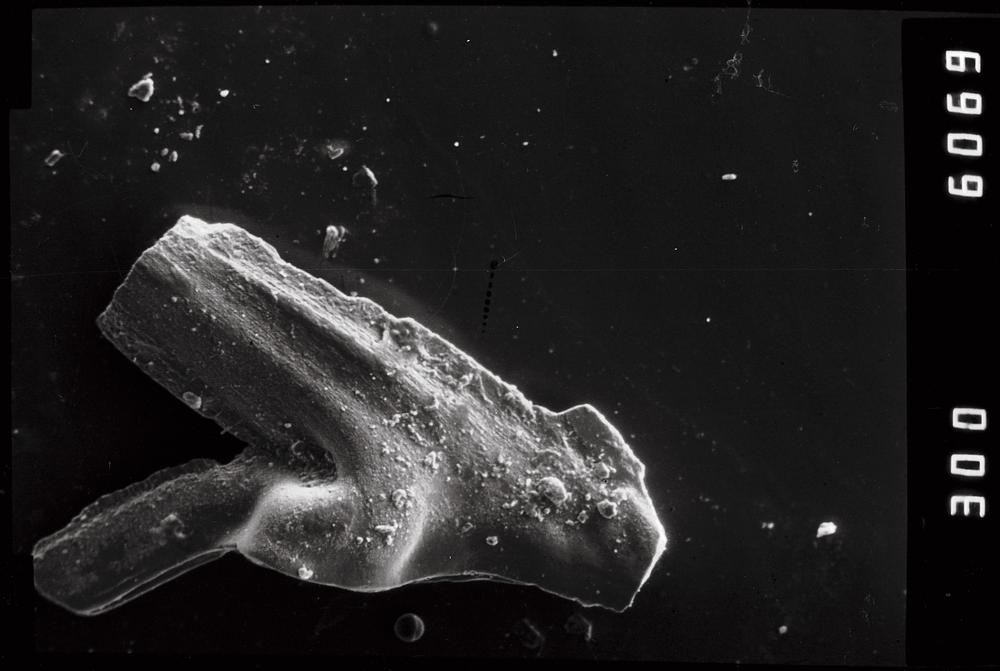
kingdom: Animalia
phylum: Chordata
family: Balognathidae
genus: Prioniodus
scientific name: Prioniodus
